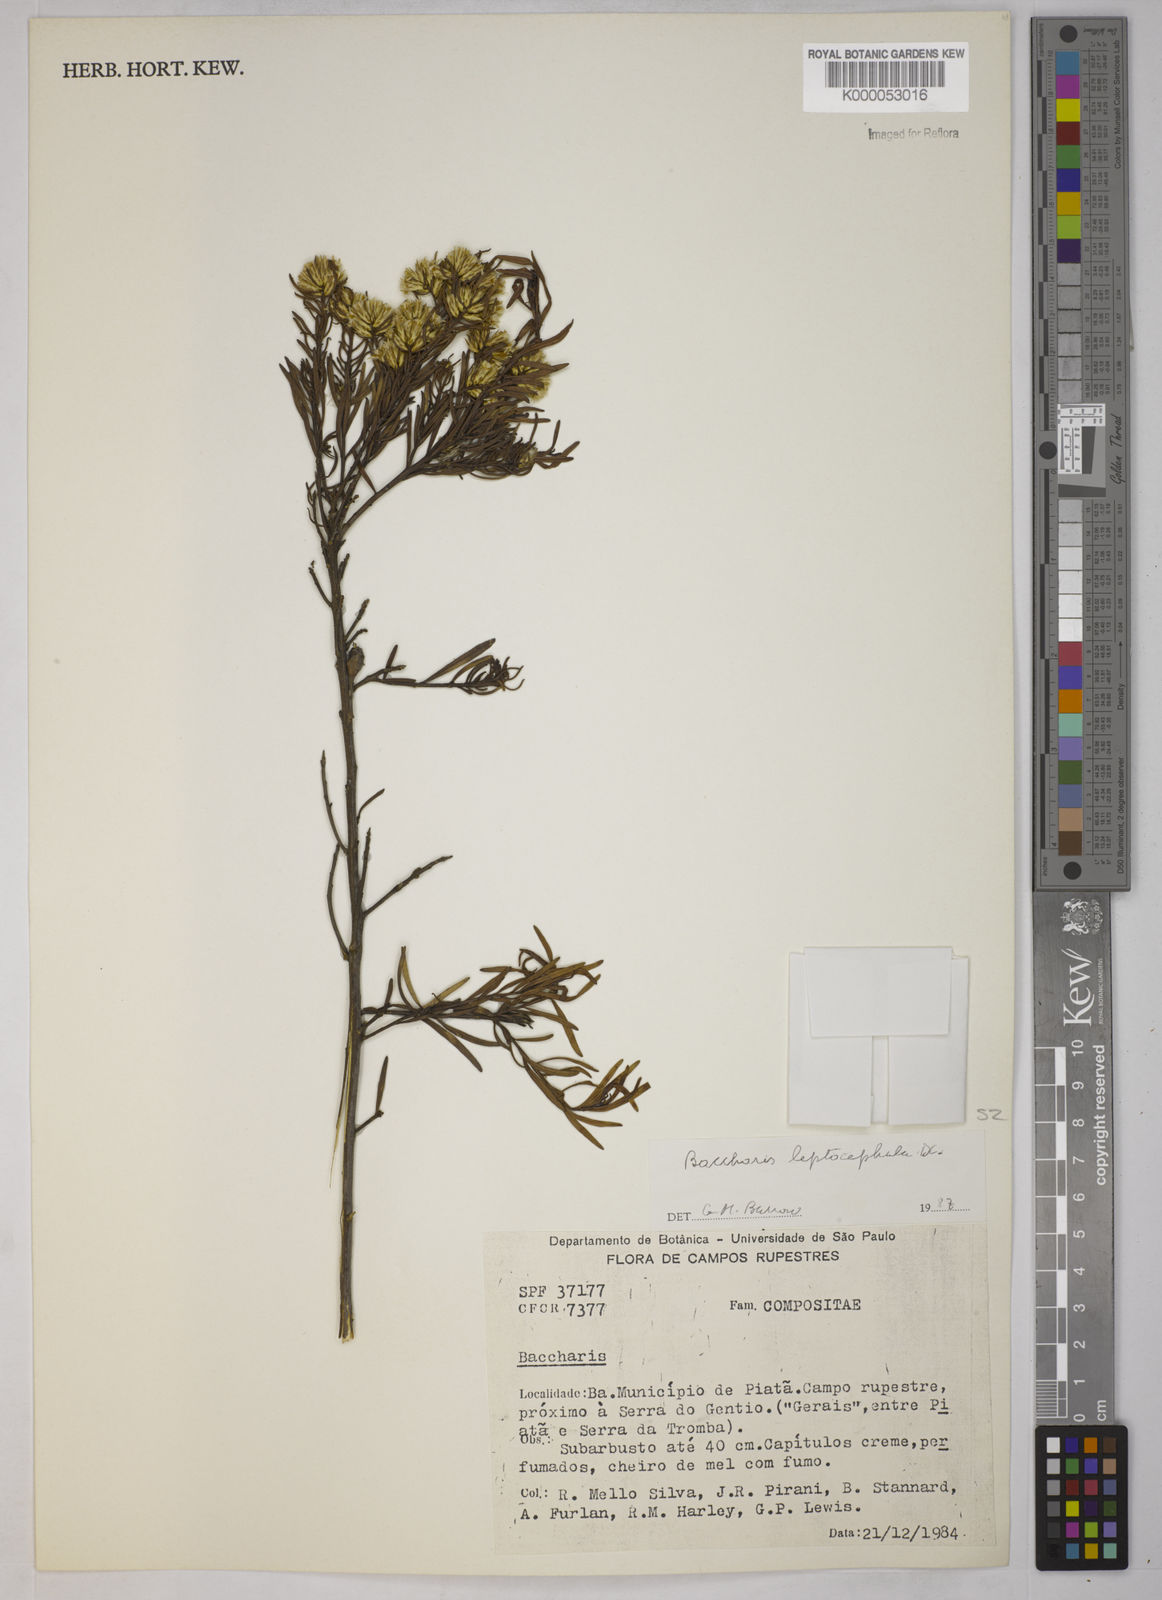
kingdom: Plantae
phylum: Tracheophyta
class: Magnoliopsida
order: Asterales
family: Asteraceae
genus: Baccharis
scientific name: Baccharis leptocephala
